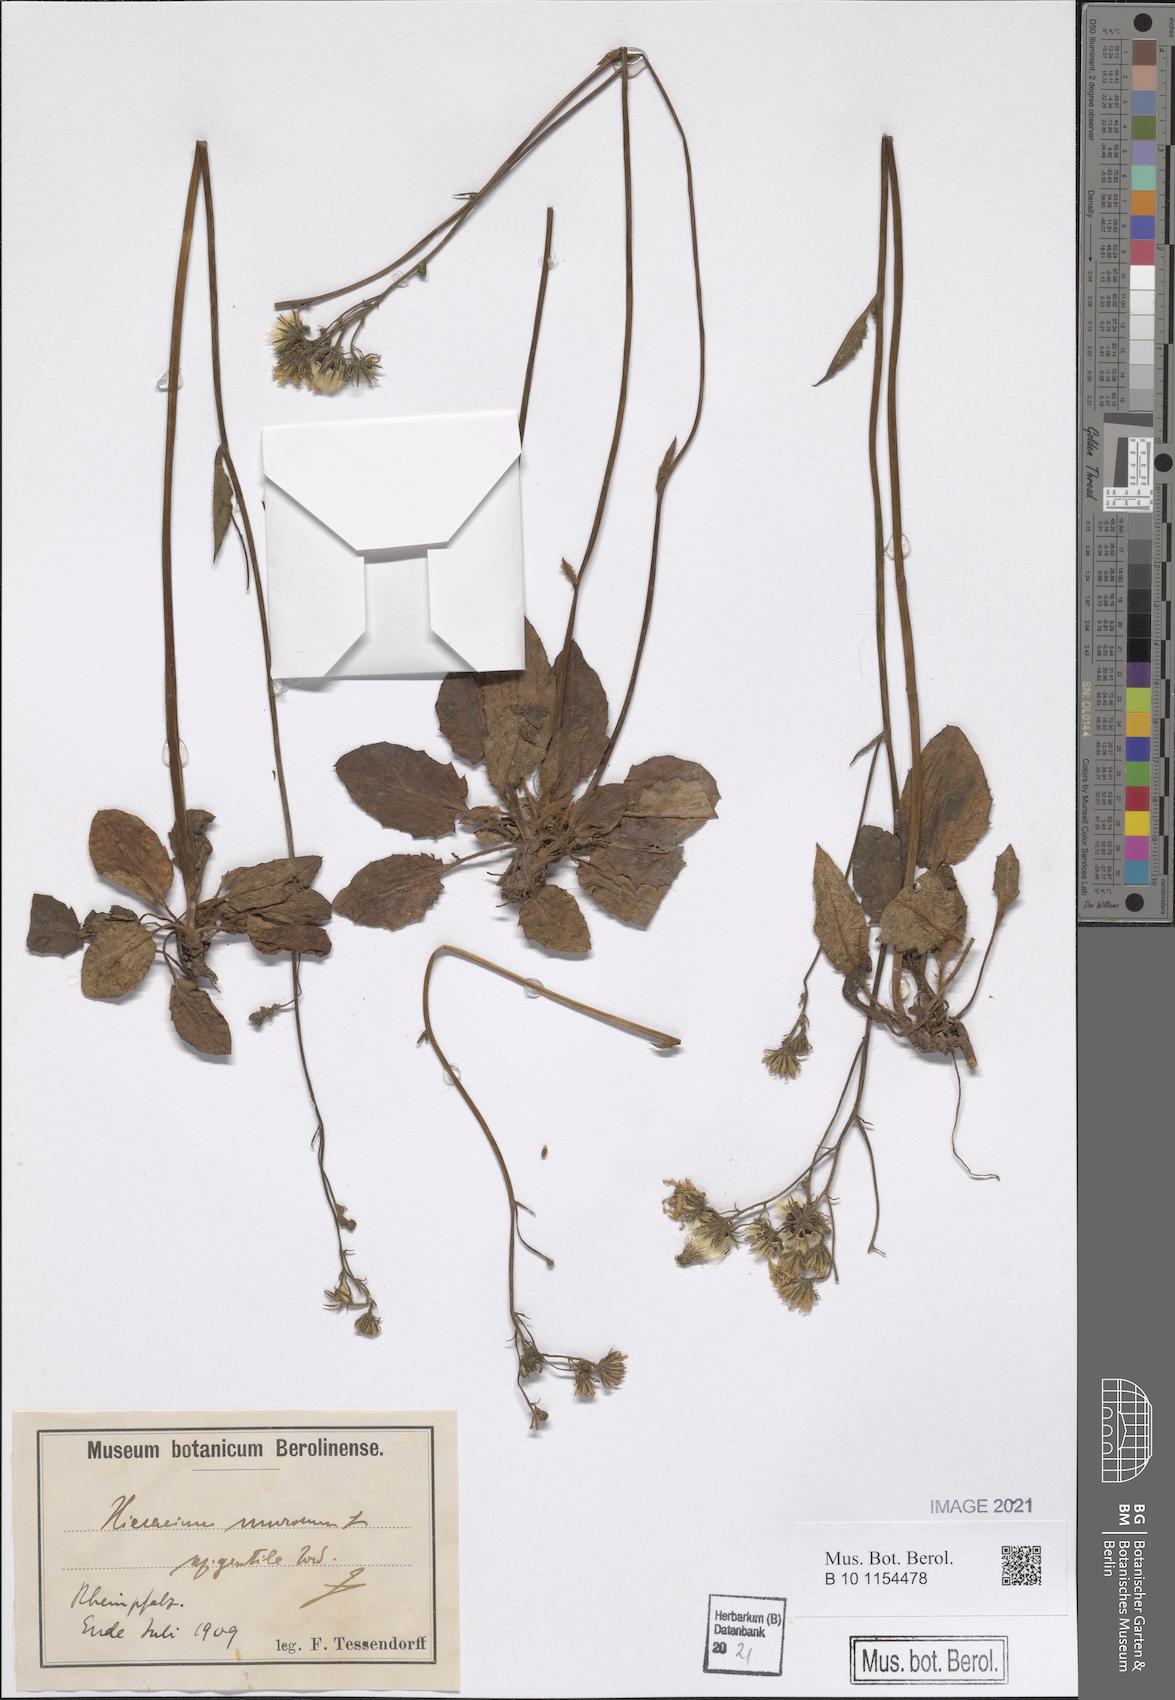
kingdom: Plantae
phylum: Tracheophyta
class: Magnoliopsida
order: Asterales
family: Asteraceae
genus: Hieracium
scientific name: Hieracium murorum
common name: Wall hawkweed
